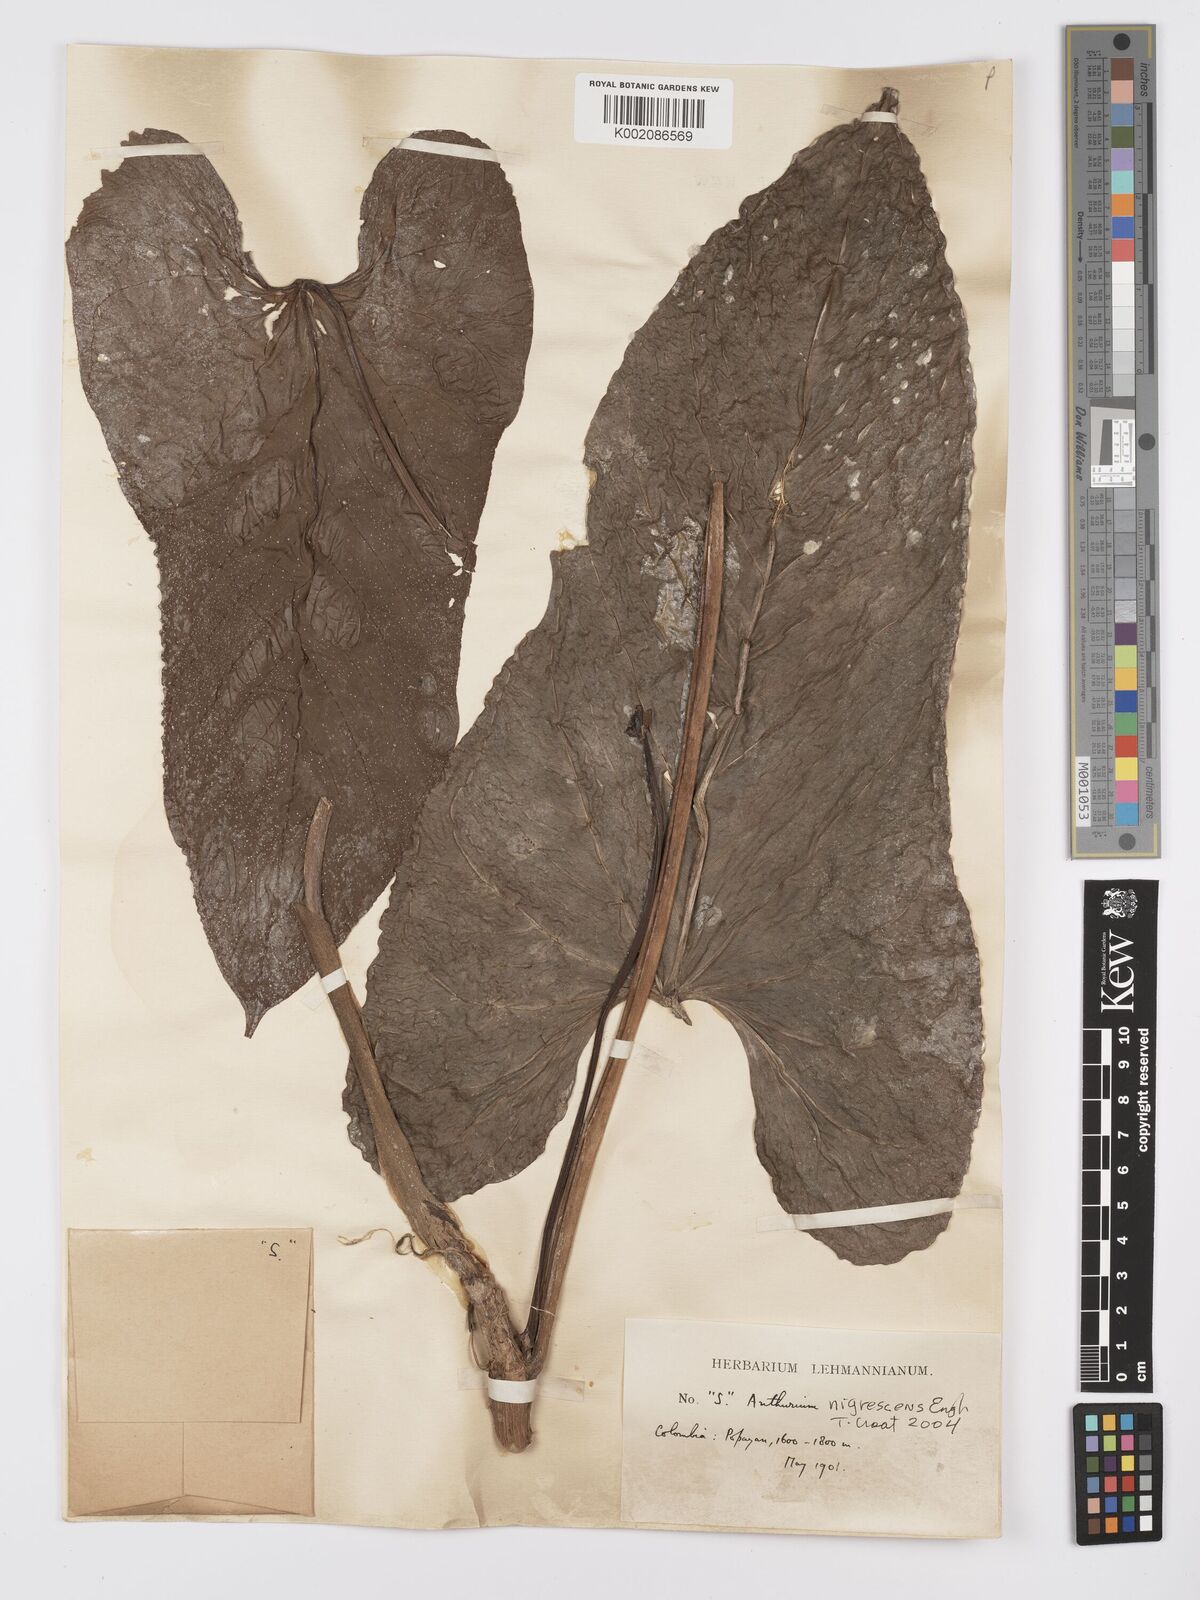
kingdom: Plantae
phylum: Tracheophyta
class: Liliopsida
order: Alismatales
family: Araceae
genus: Anthurium
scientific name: Anthurium nigrescens
